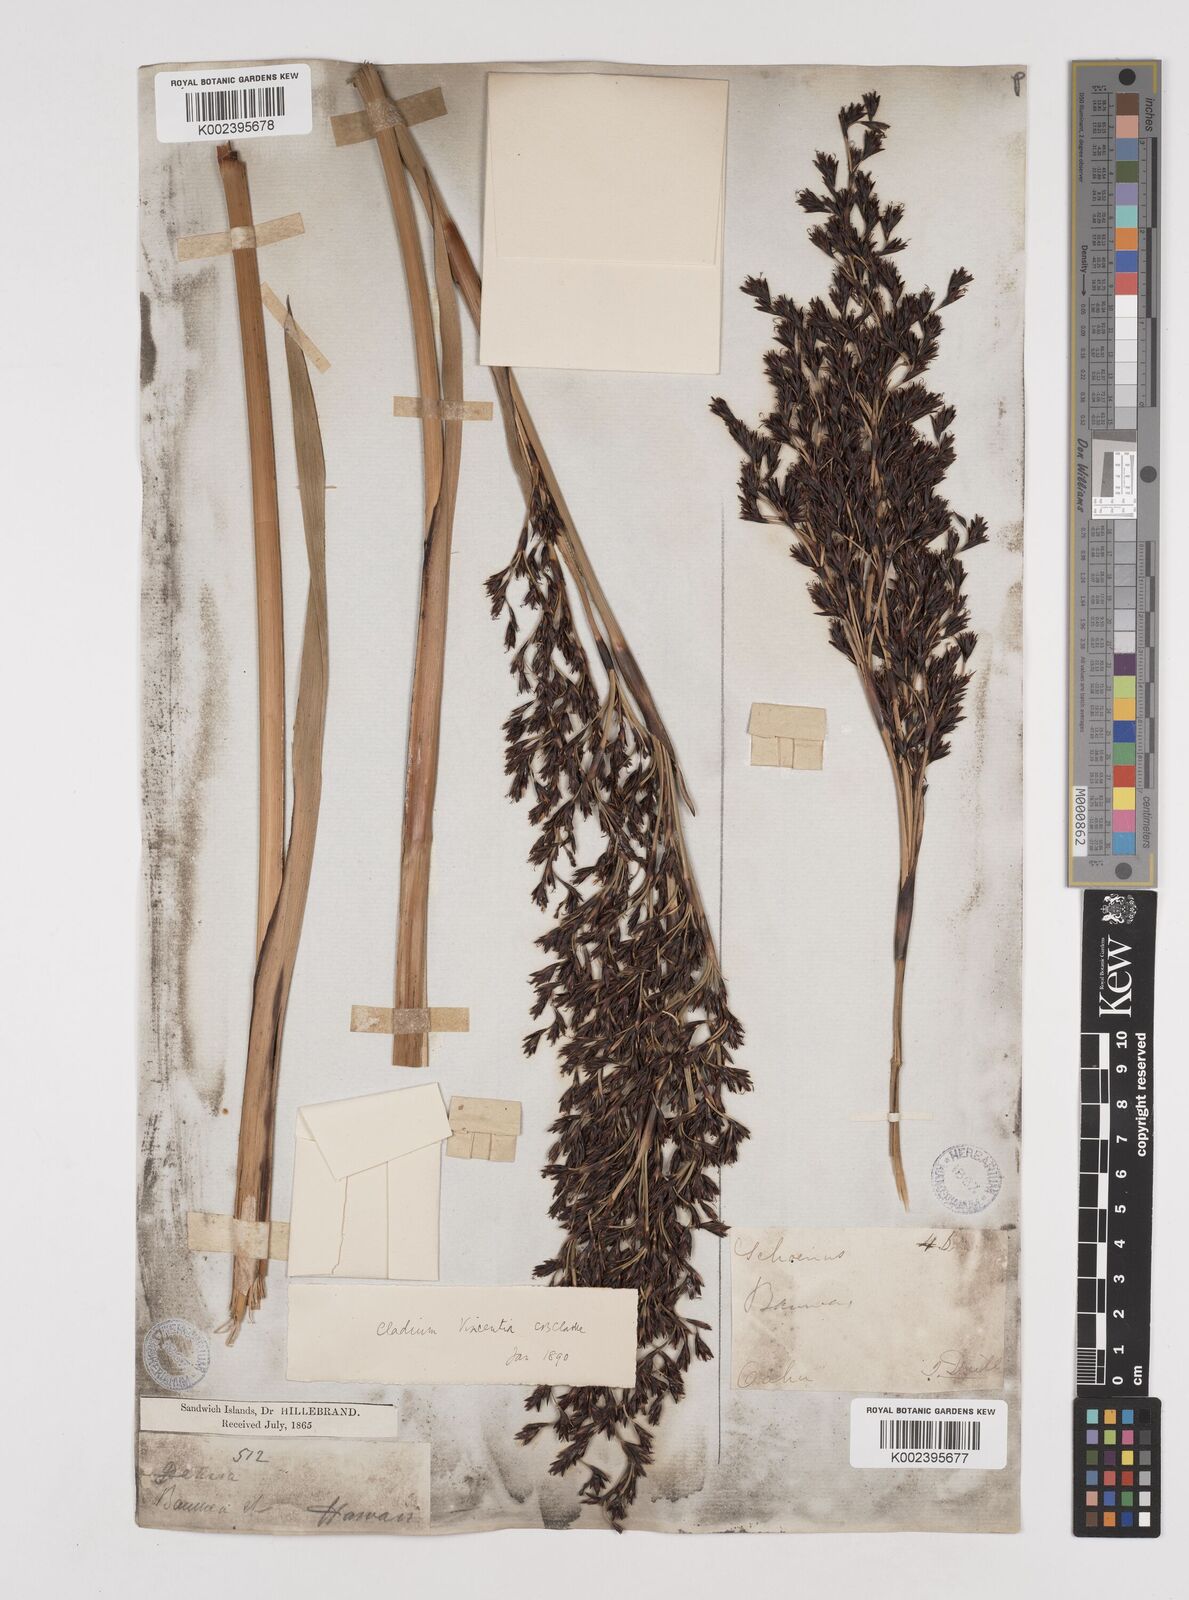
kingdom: Plantae
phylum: Tracheophyta
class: Liliopsida
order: Poales
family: Cyperaceae
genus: Machaerina
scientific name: Machaerina angustifolia
